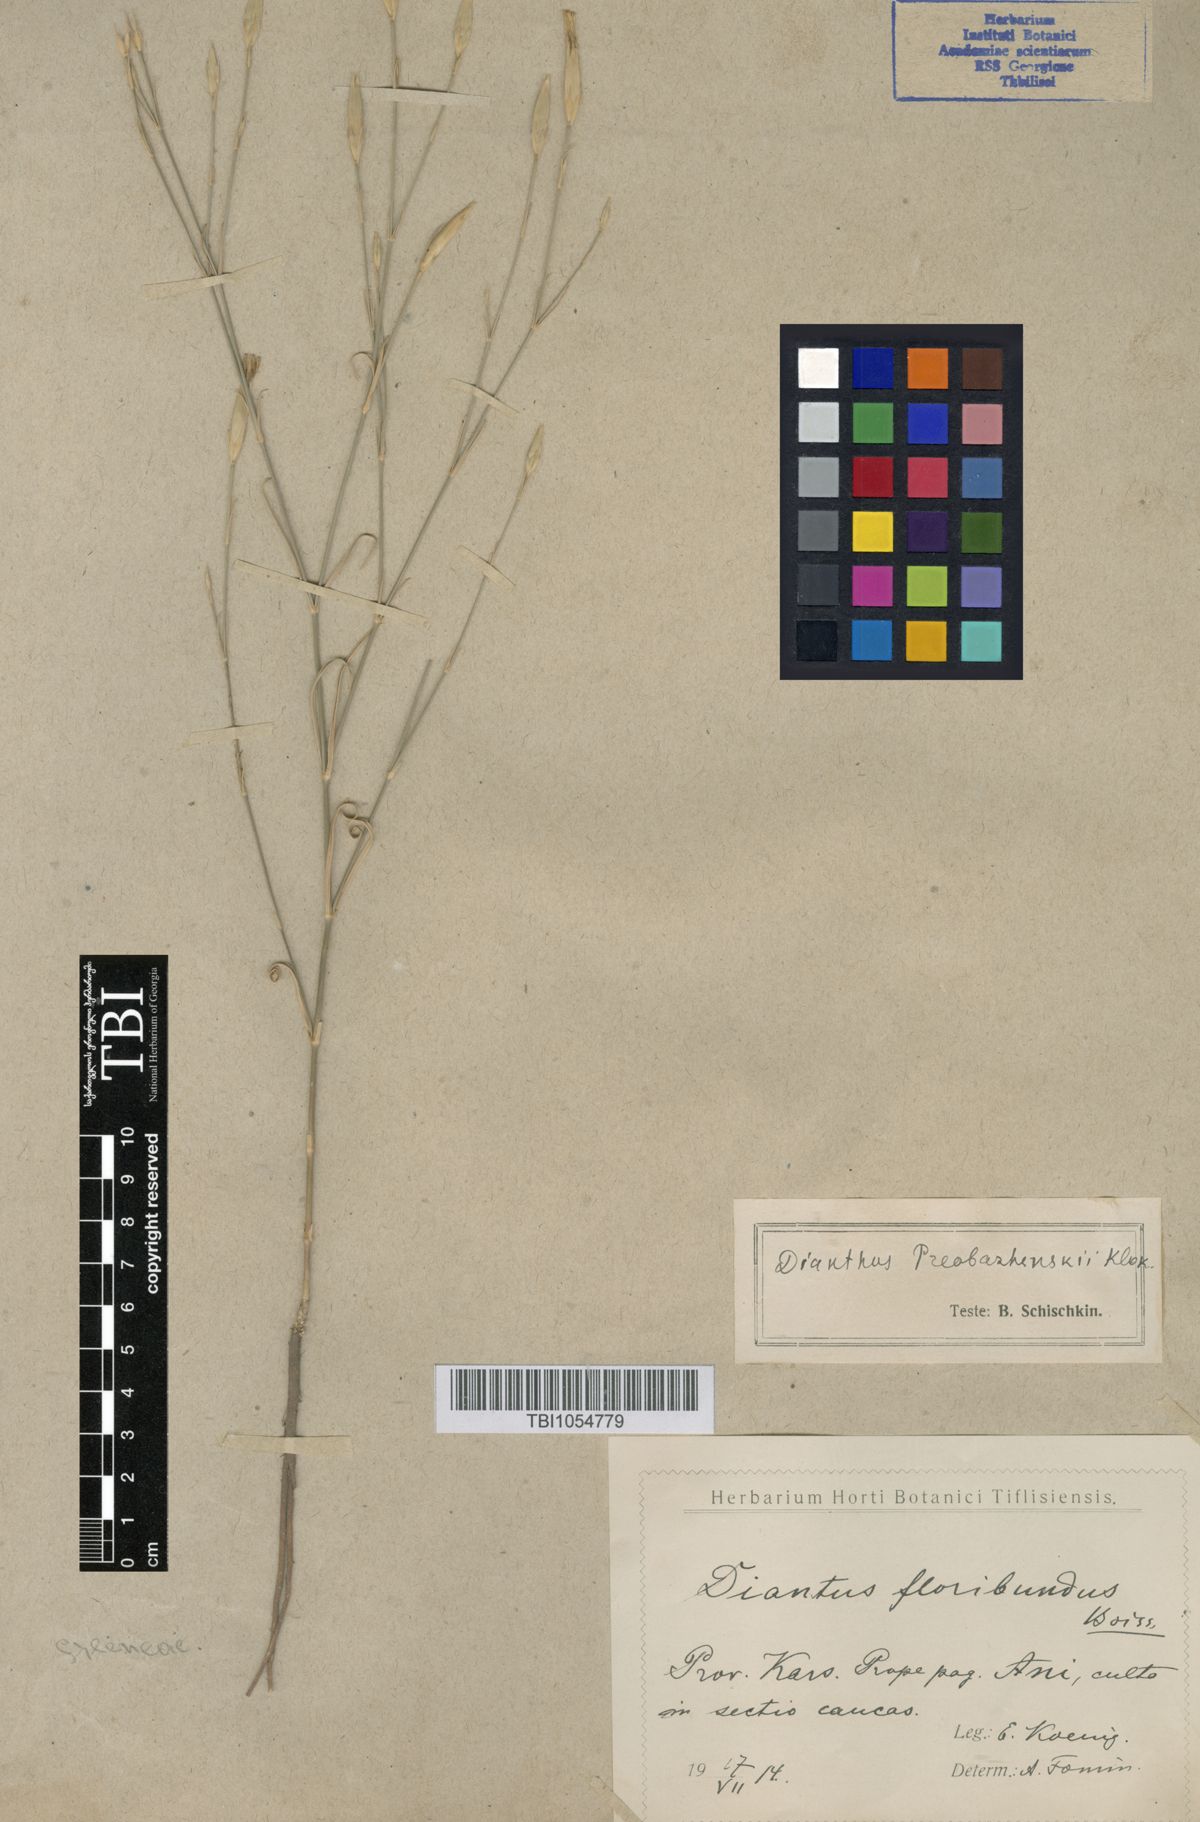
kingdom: Plantae
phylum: Tracheophyta
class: Magnoliopsida
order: Caryophyllales
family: Caryophyllaceae
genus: Dianthus
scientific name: Dianthus bicolor
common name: Bicolour pink
